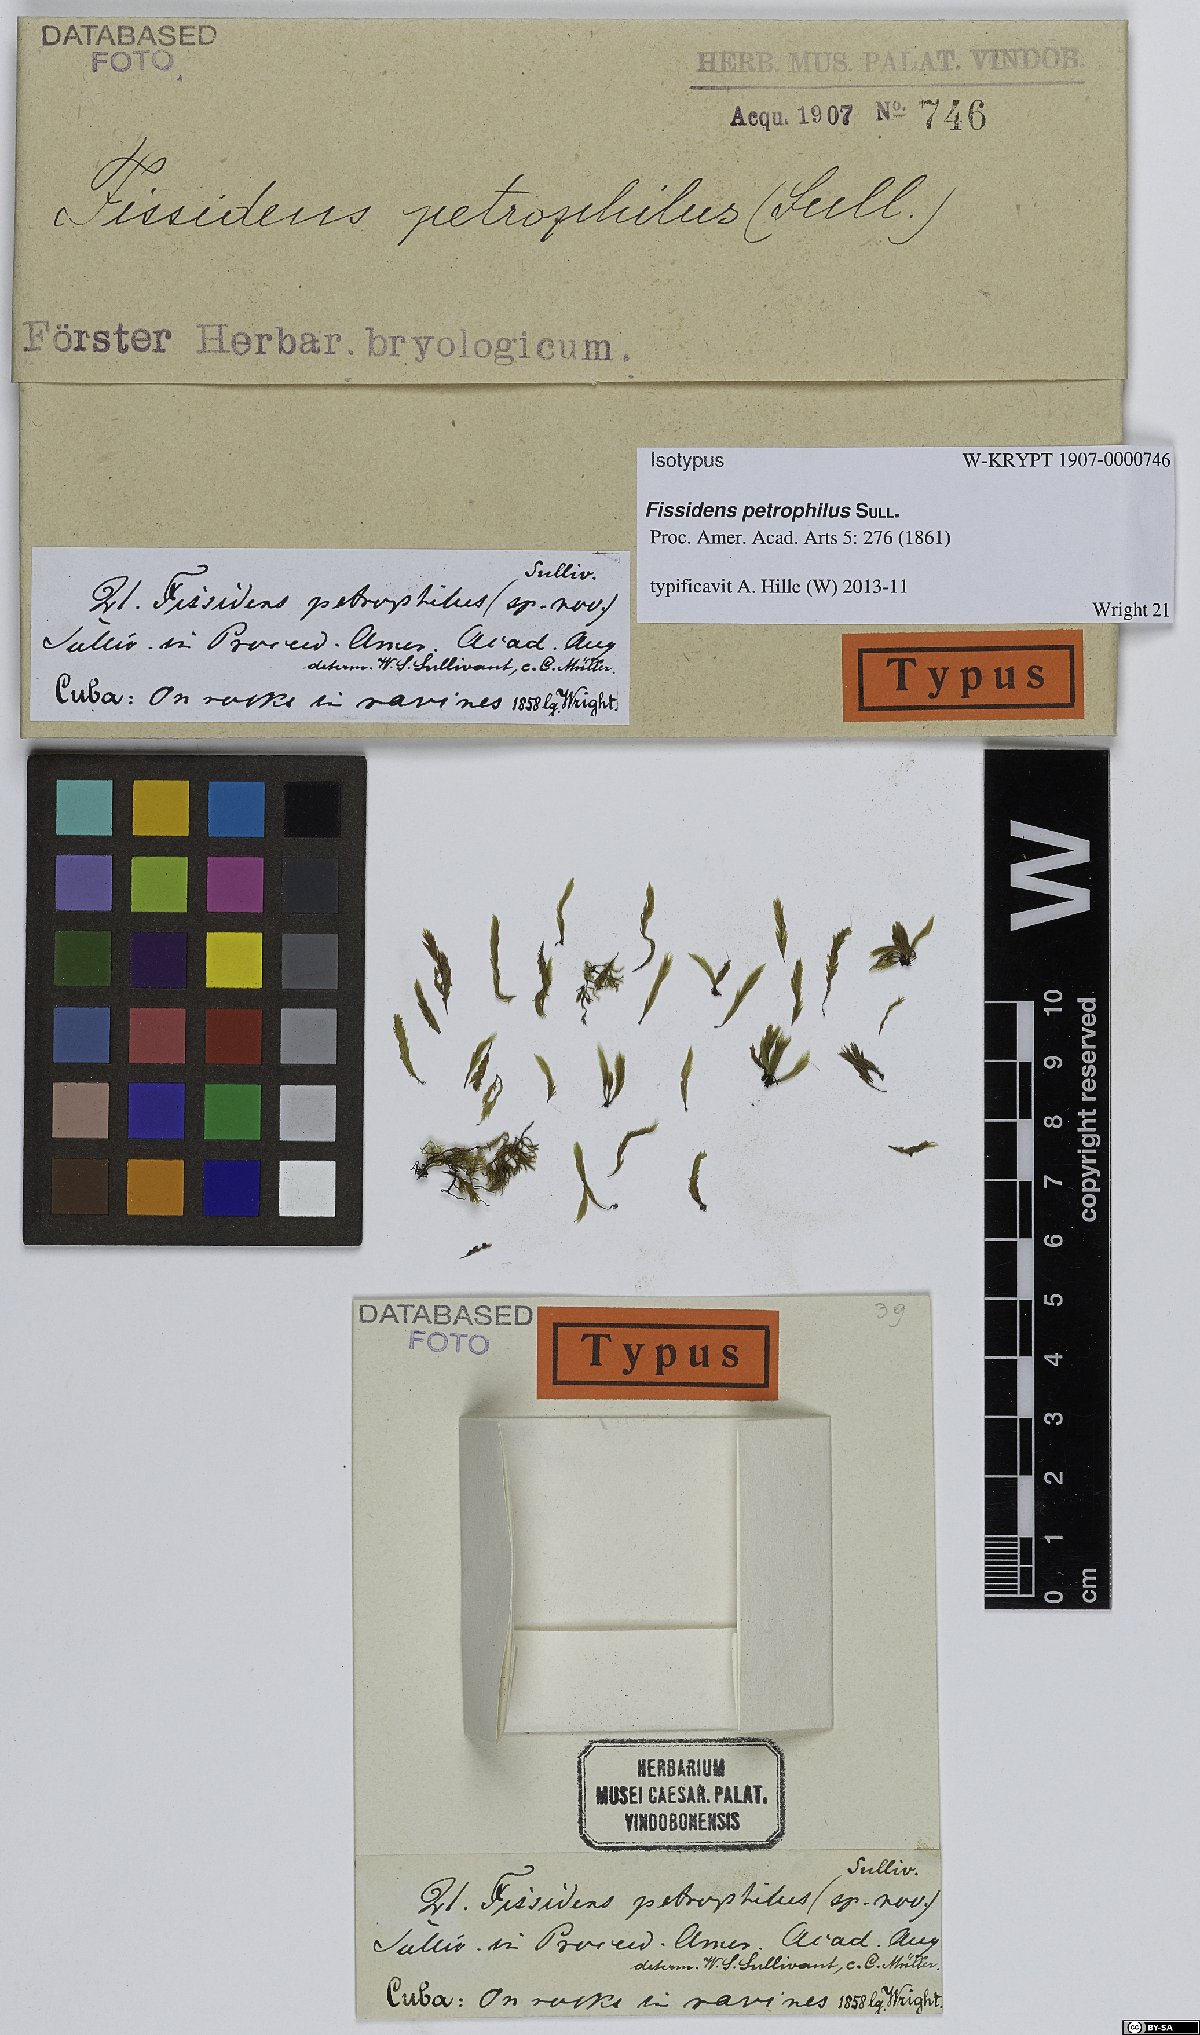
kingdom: Plantae
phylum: Bryophyta
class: Bryopsida
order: Dicranales
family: Fissidentaceae
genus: Fissidens
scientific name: Fissidens petrophilus
